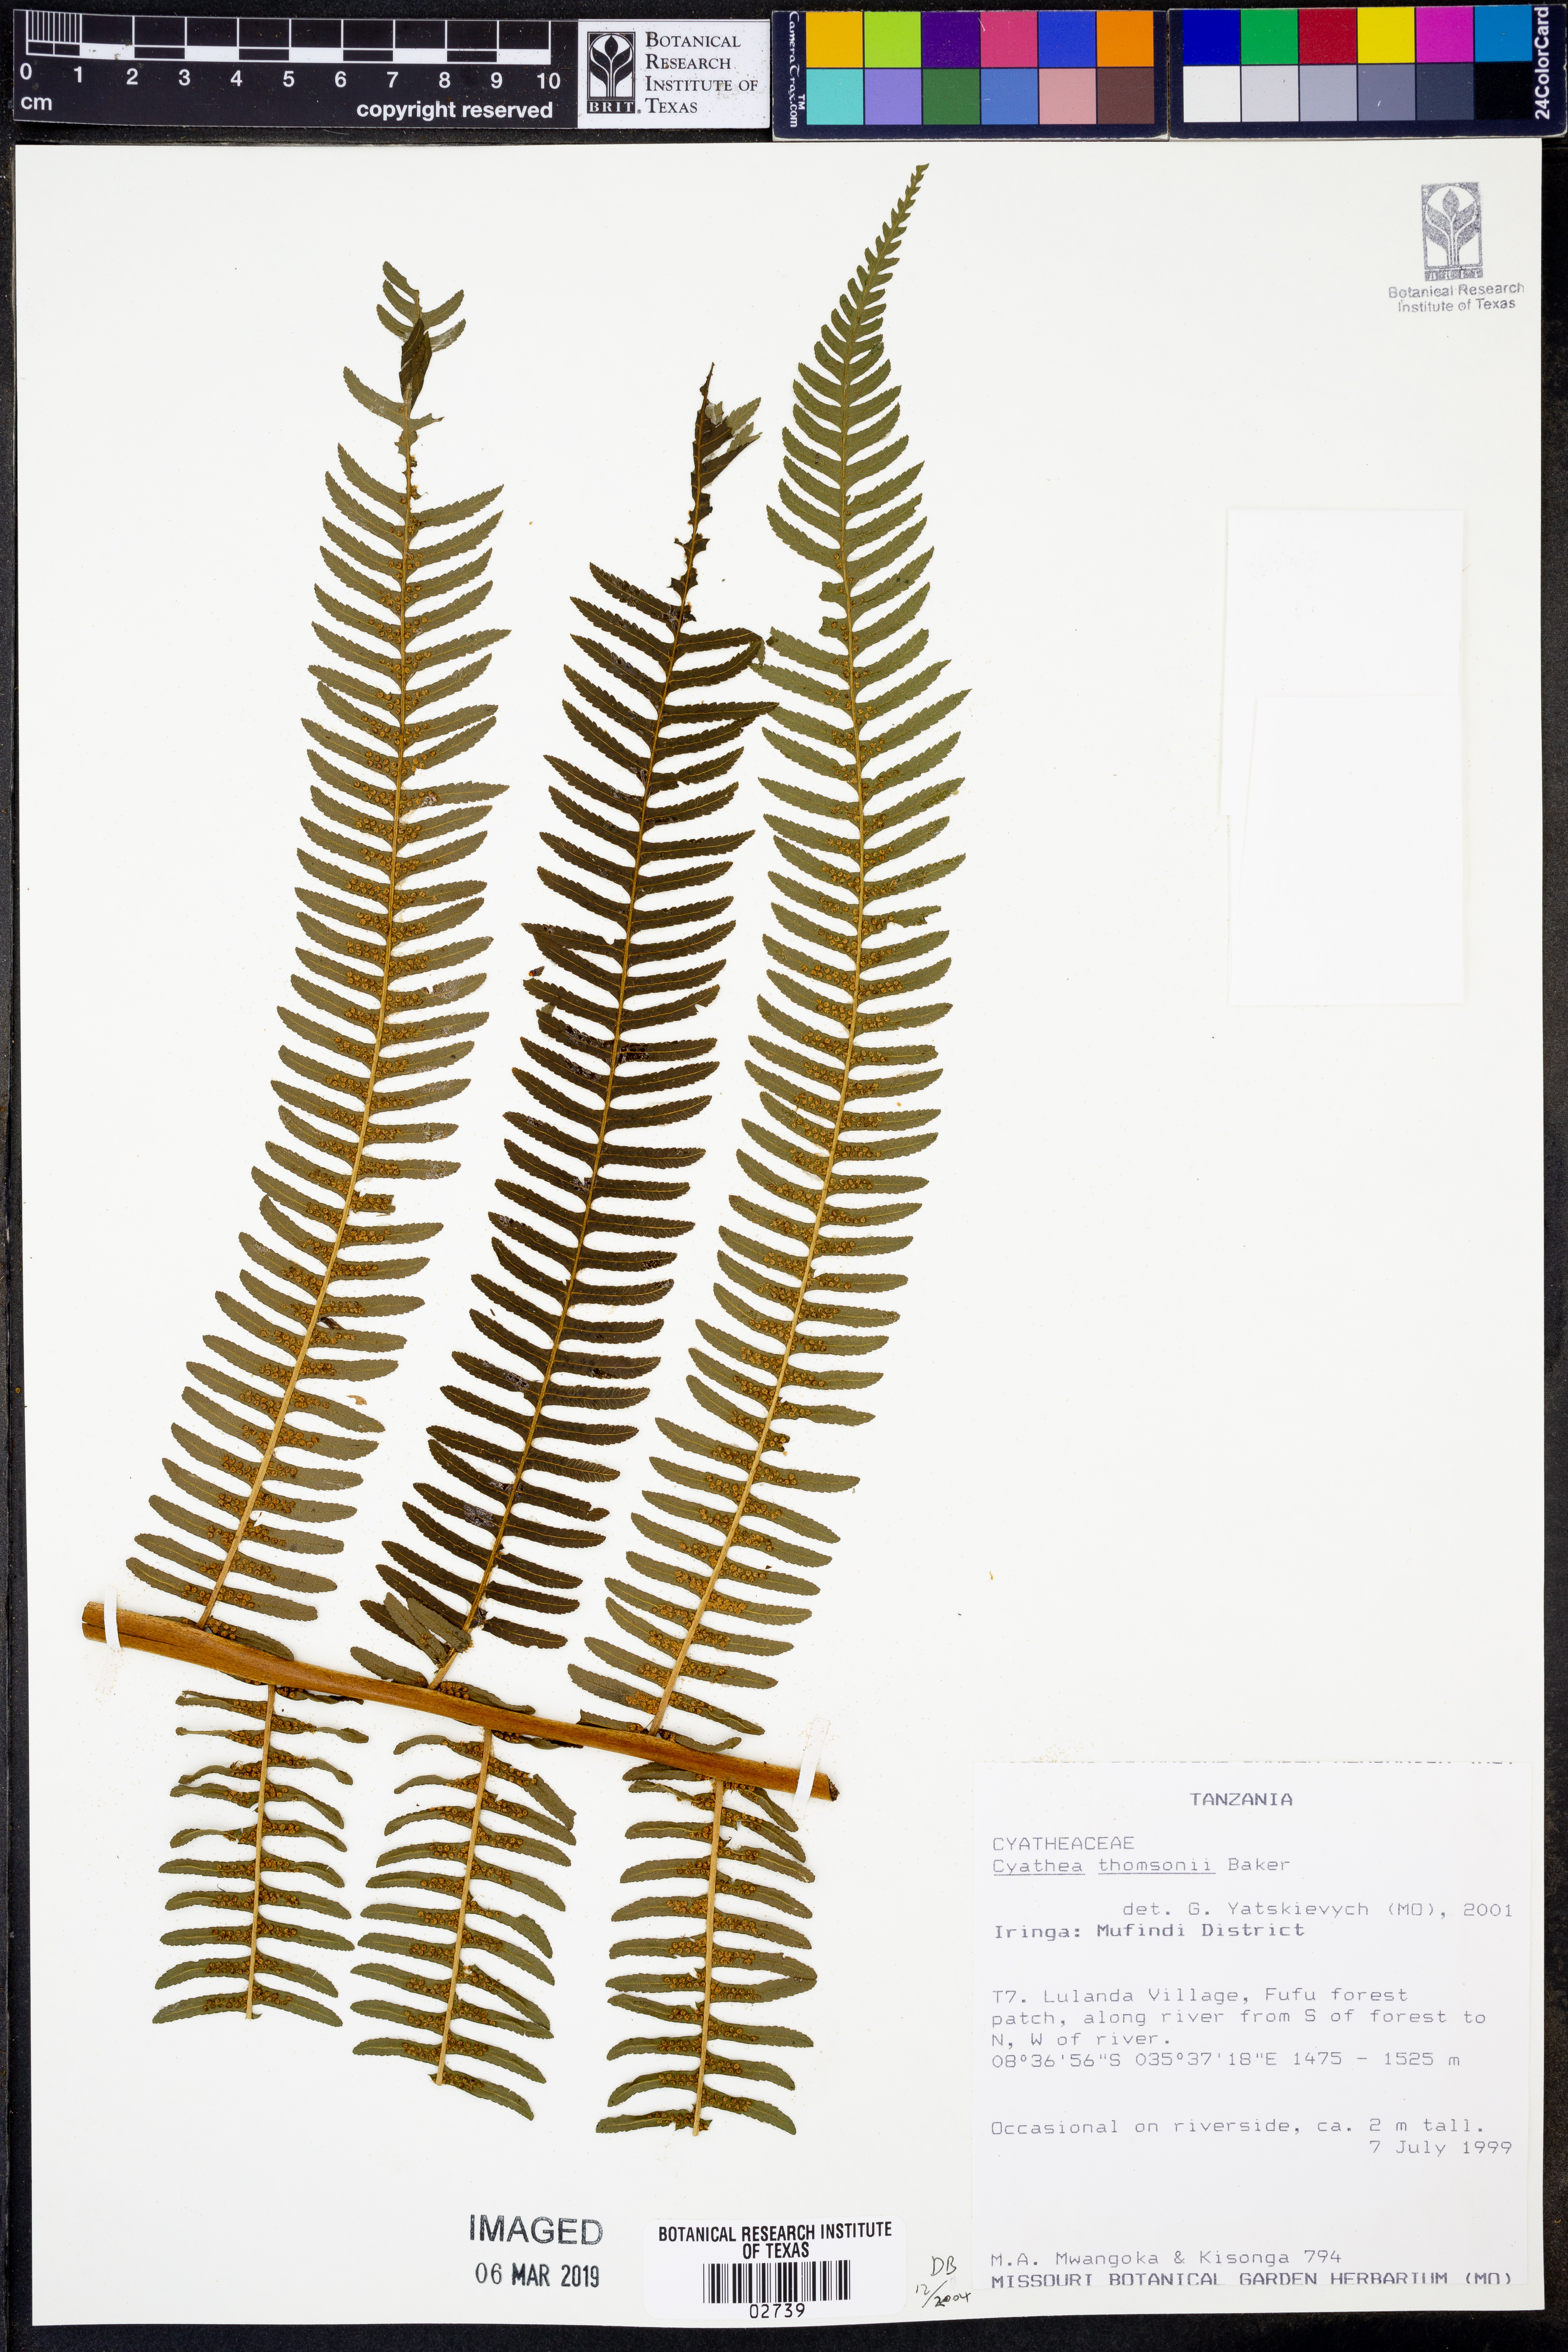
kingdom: Plantae
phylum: Tracheophyta
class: Polypodiopsida
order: Cyatheales
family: Cyatheaceae
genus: Alsophila
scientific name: Alsophila thomsonii
